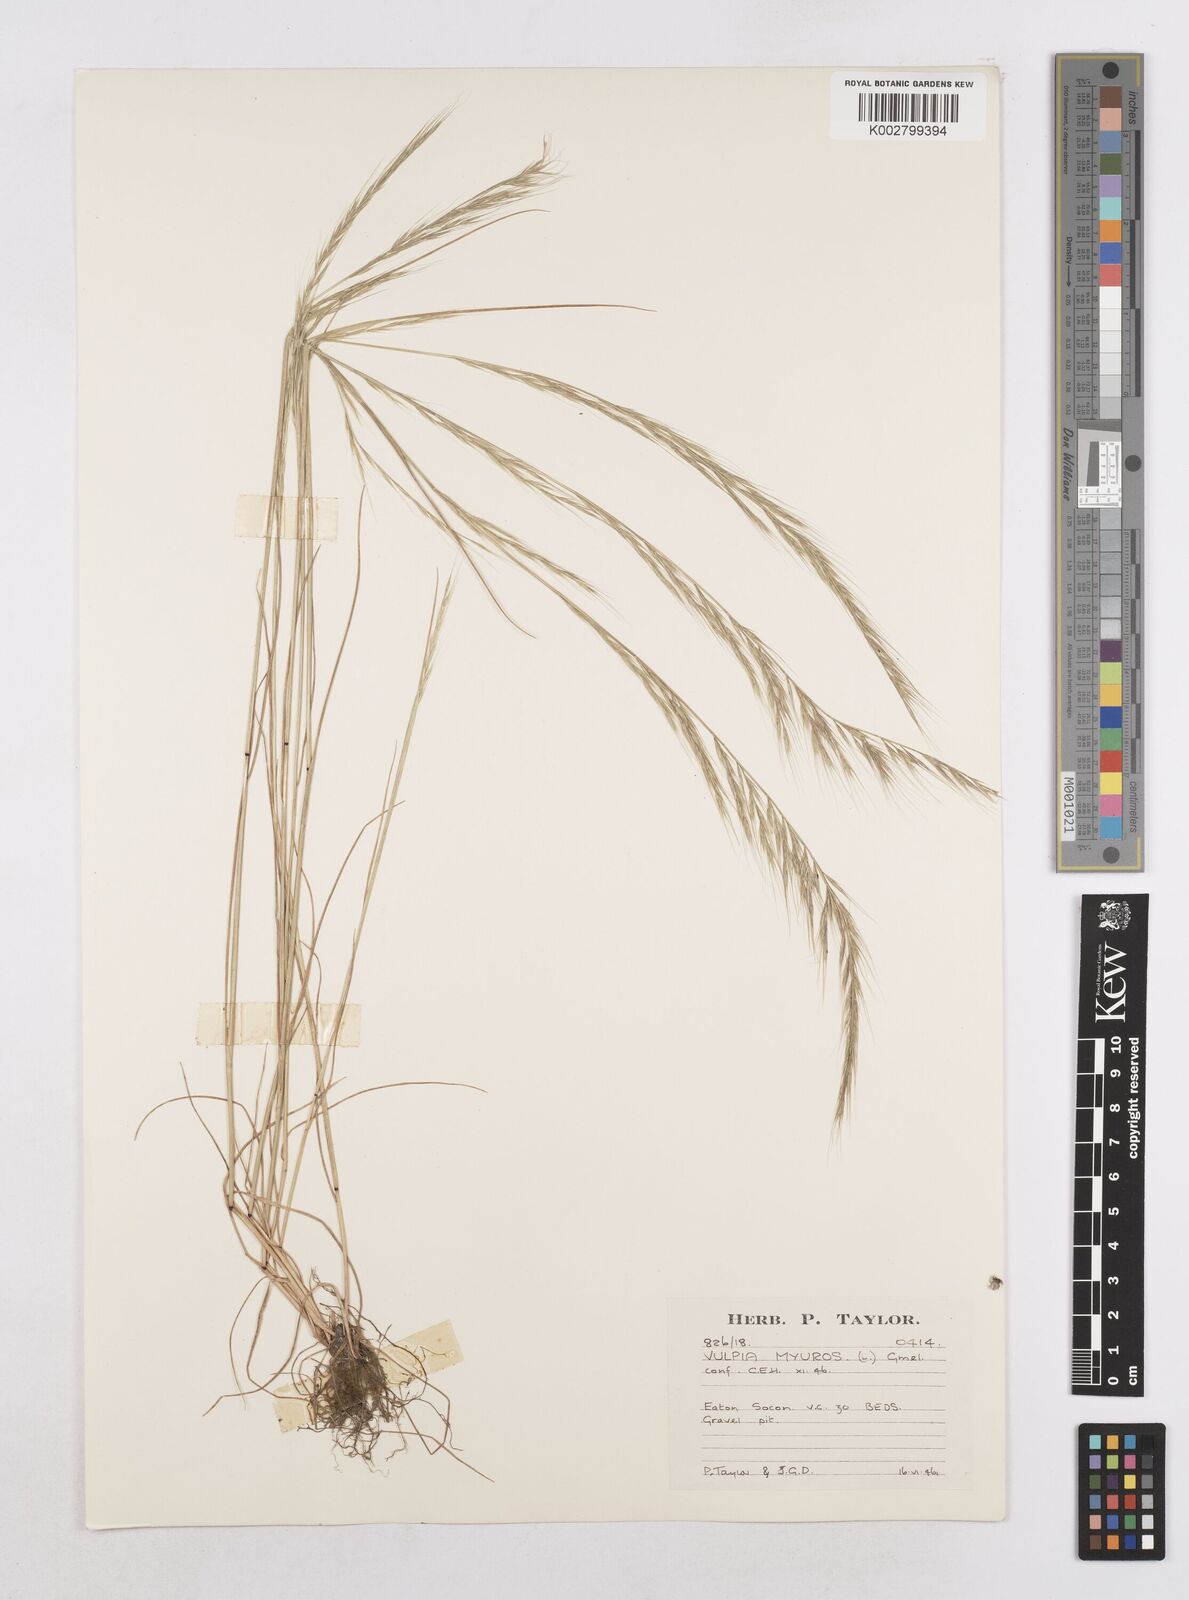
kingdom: Plantae
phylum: Tracheophyta
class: Liliopsida
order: Poales
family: Poaceae
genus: Festuca
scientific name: Festuca myuros
